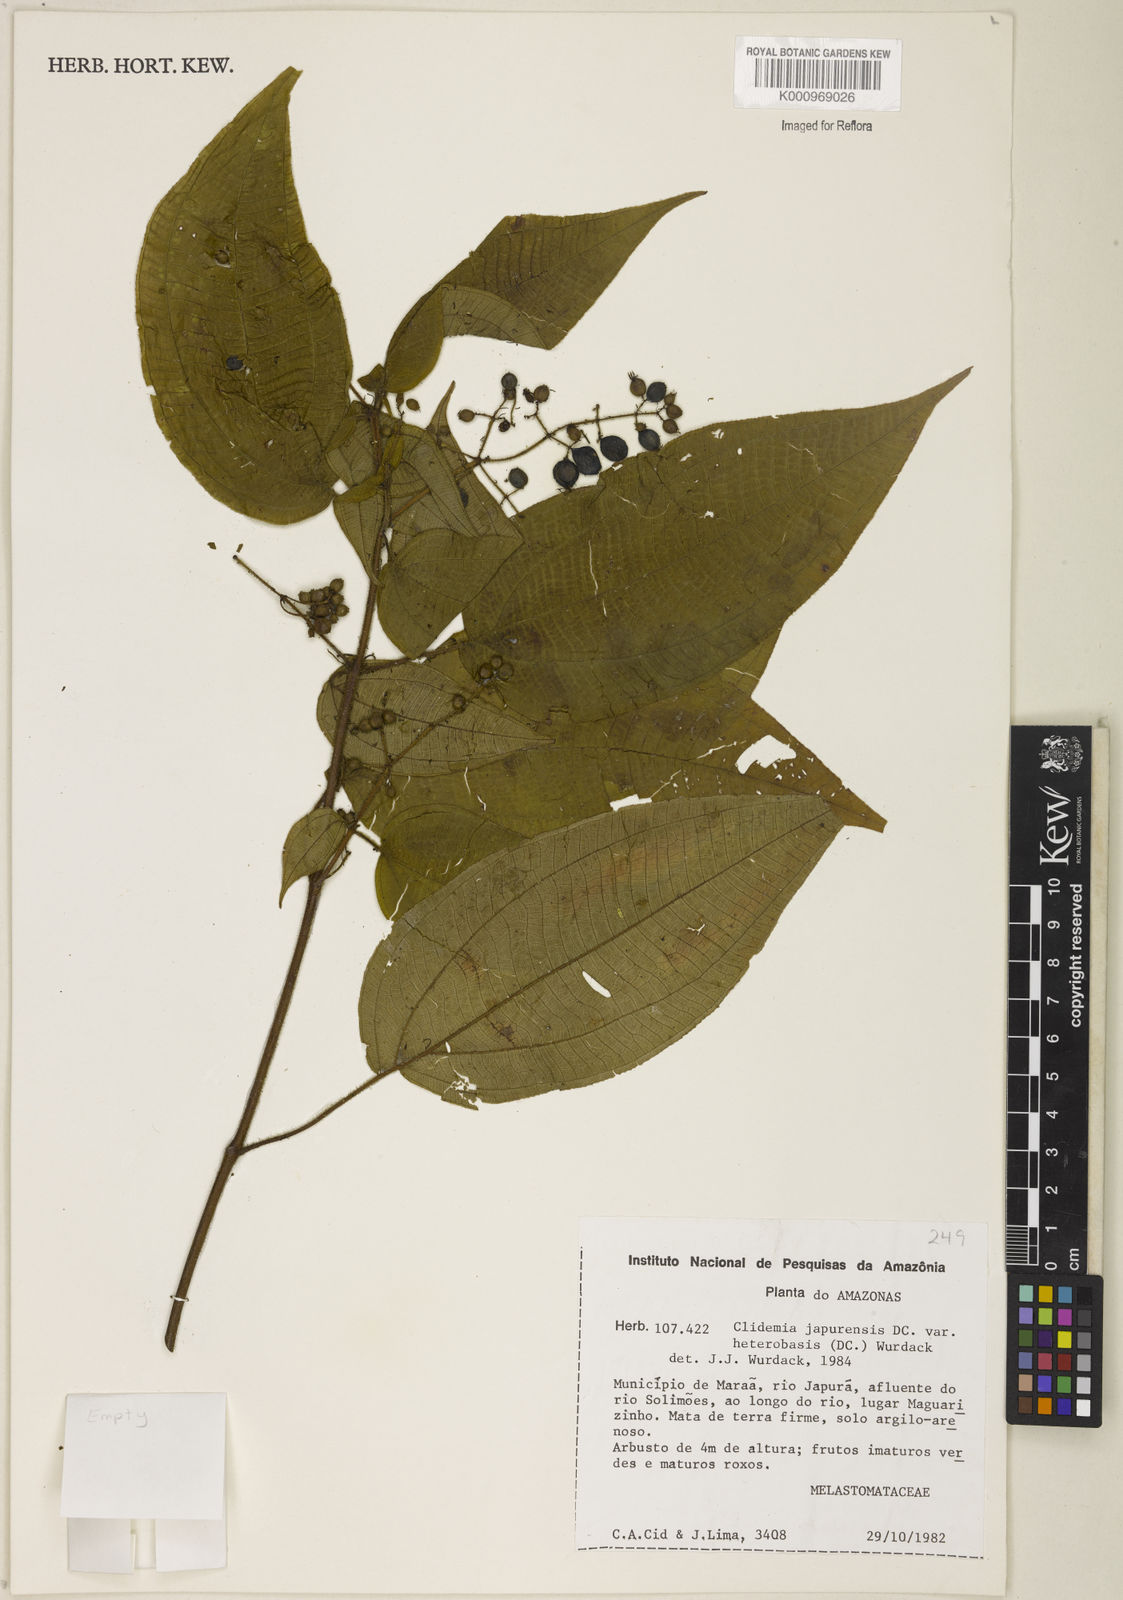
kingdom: Plantae
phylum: Tracheophyta
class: Magnoliopsida
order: Myrtales
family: Melastomataceae
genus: Miconia
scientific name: Miconia heteroclita
